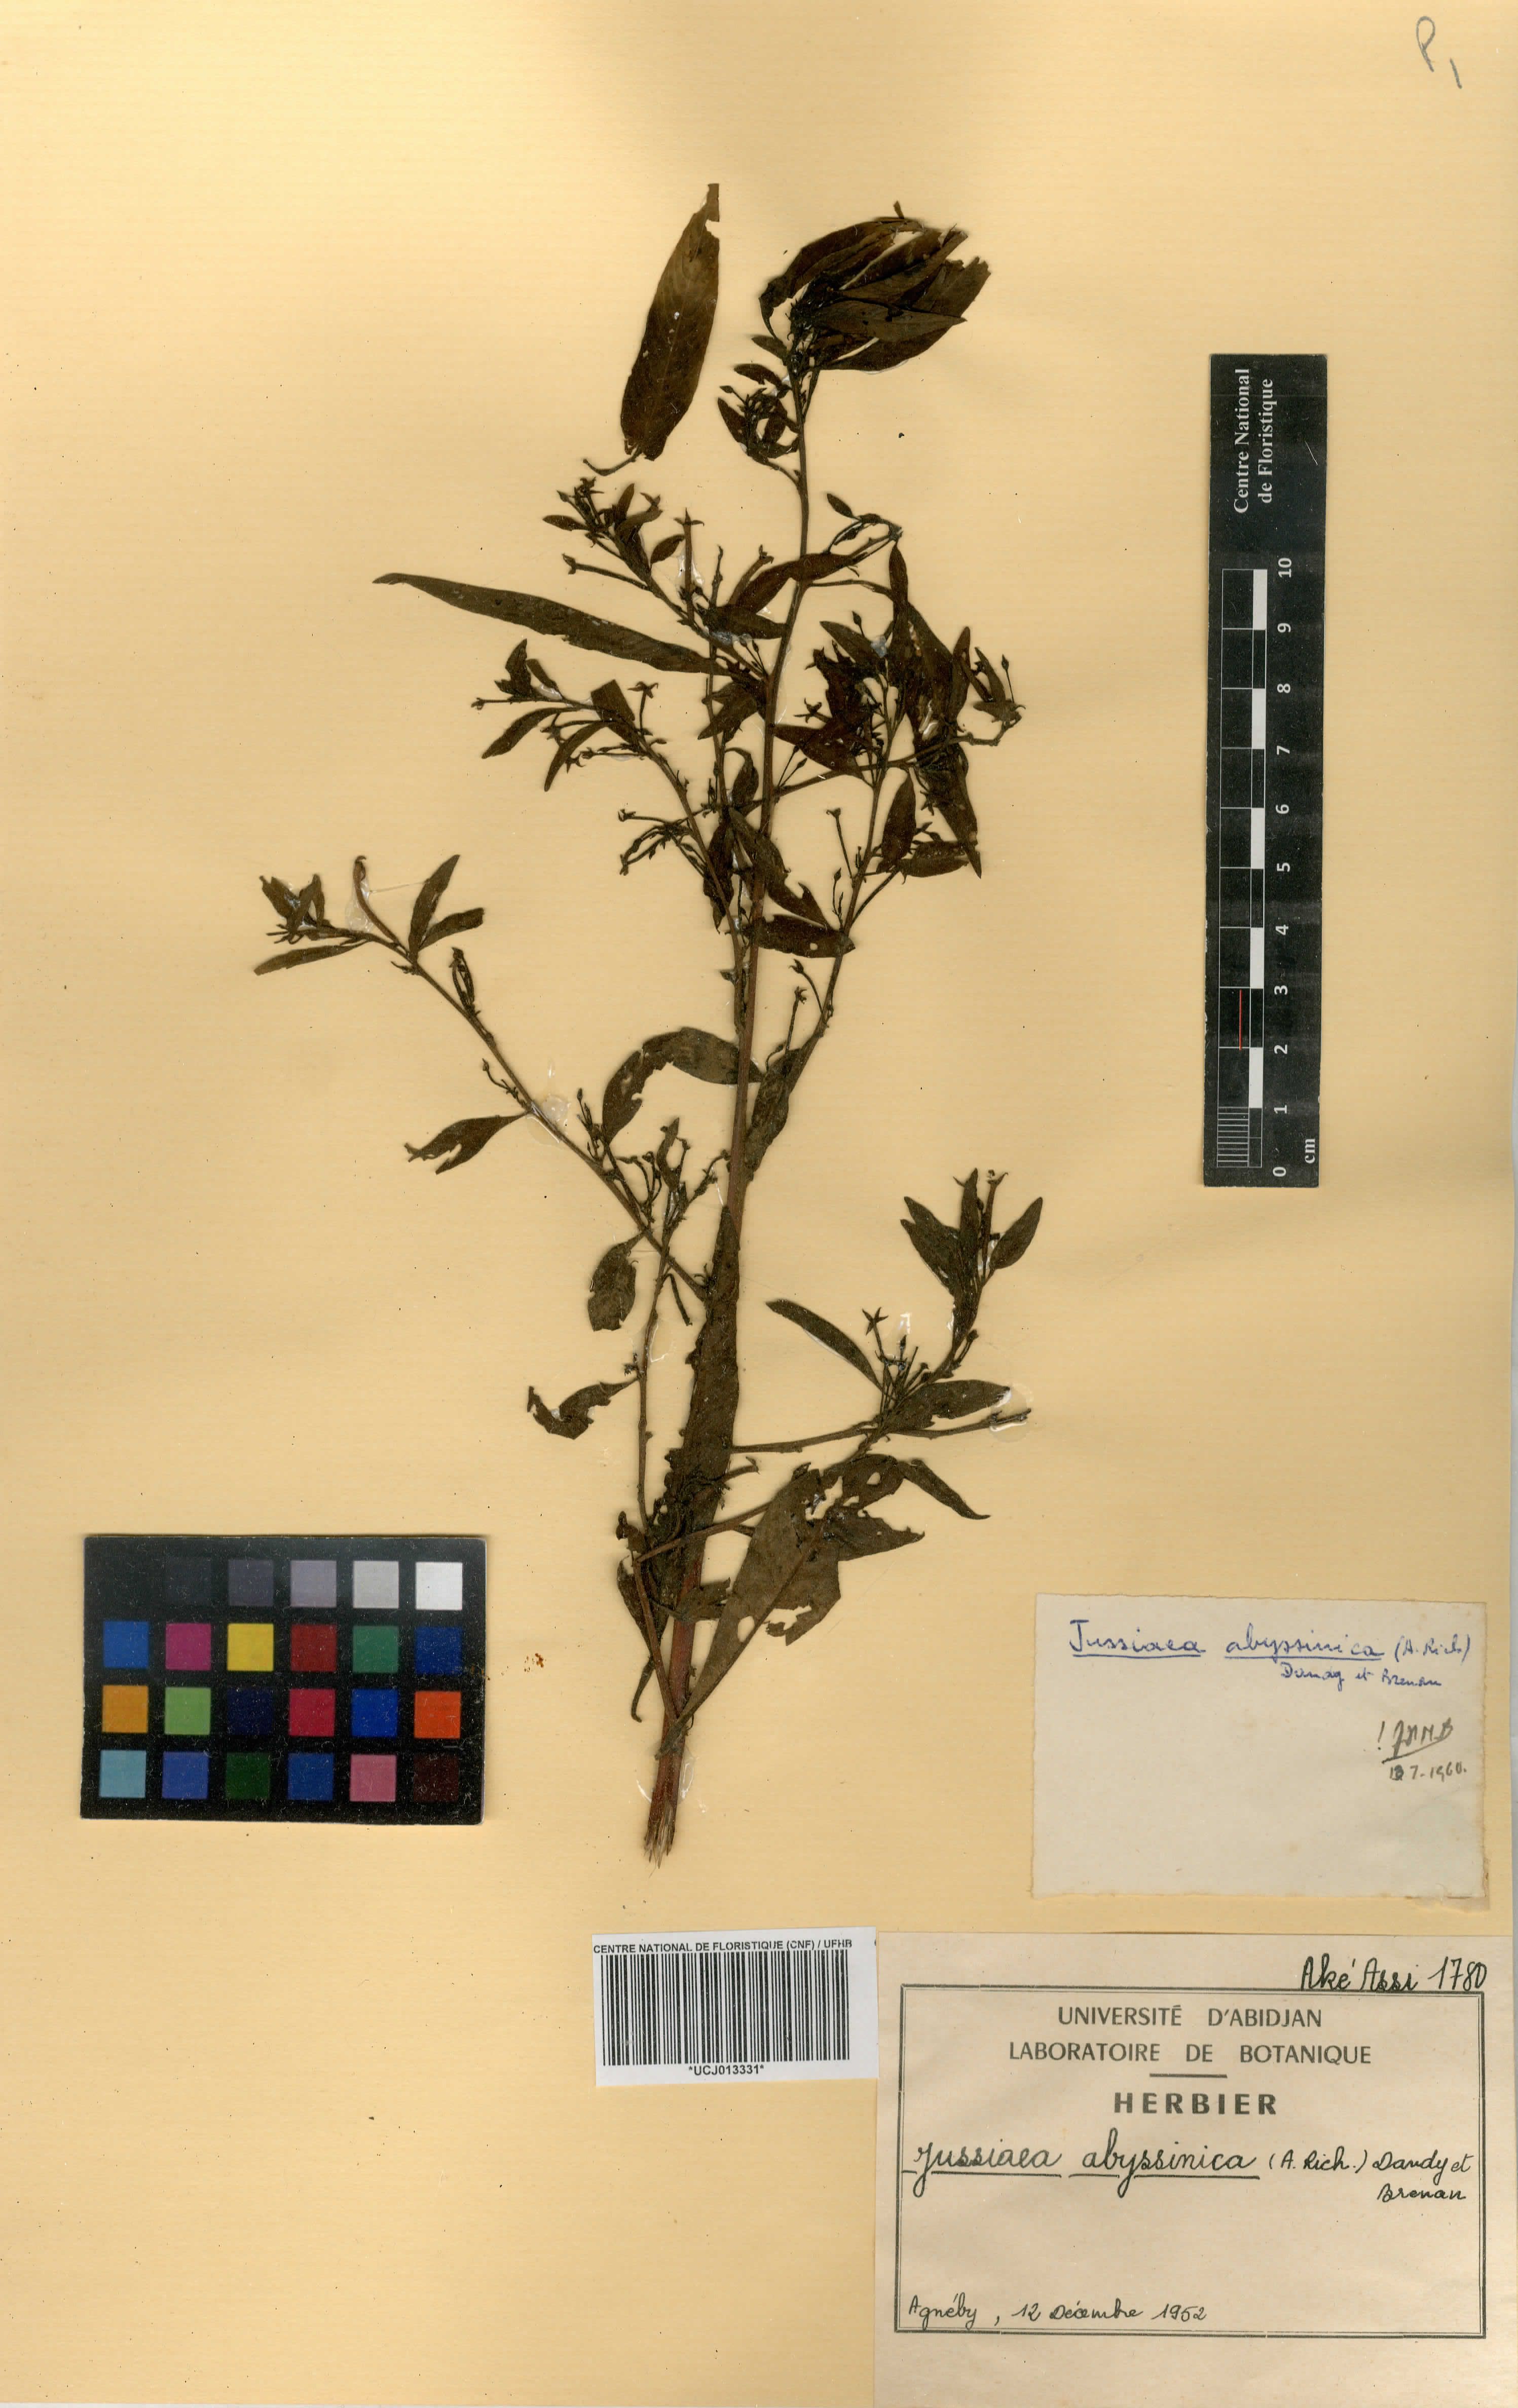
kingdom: Plantae
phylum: Tracheophyta
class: Magnoliopsida
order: Myrtales
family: Onagraceae
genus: Ludwigia
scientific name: Ludwigia abyssinica
